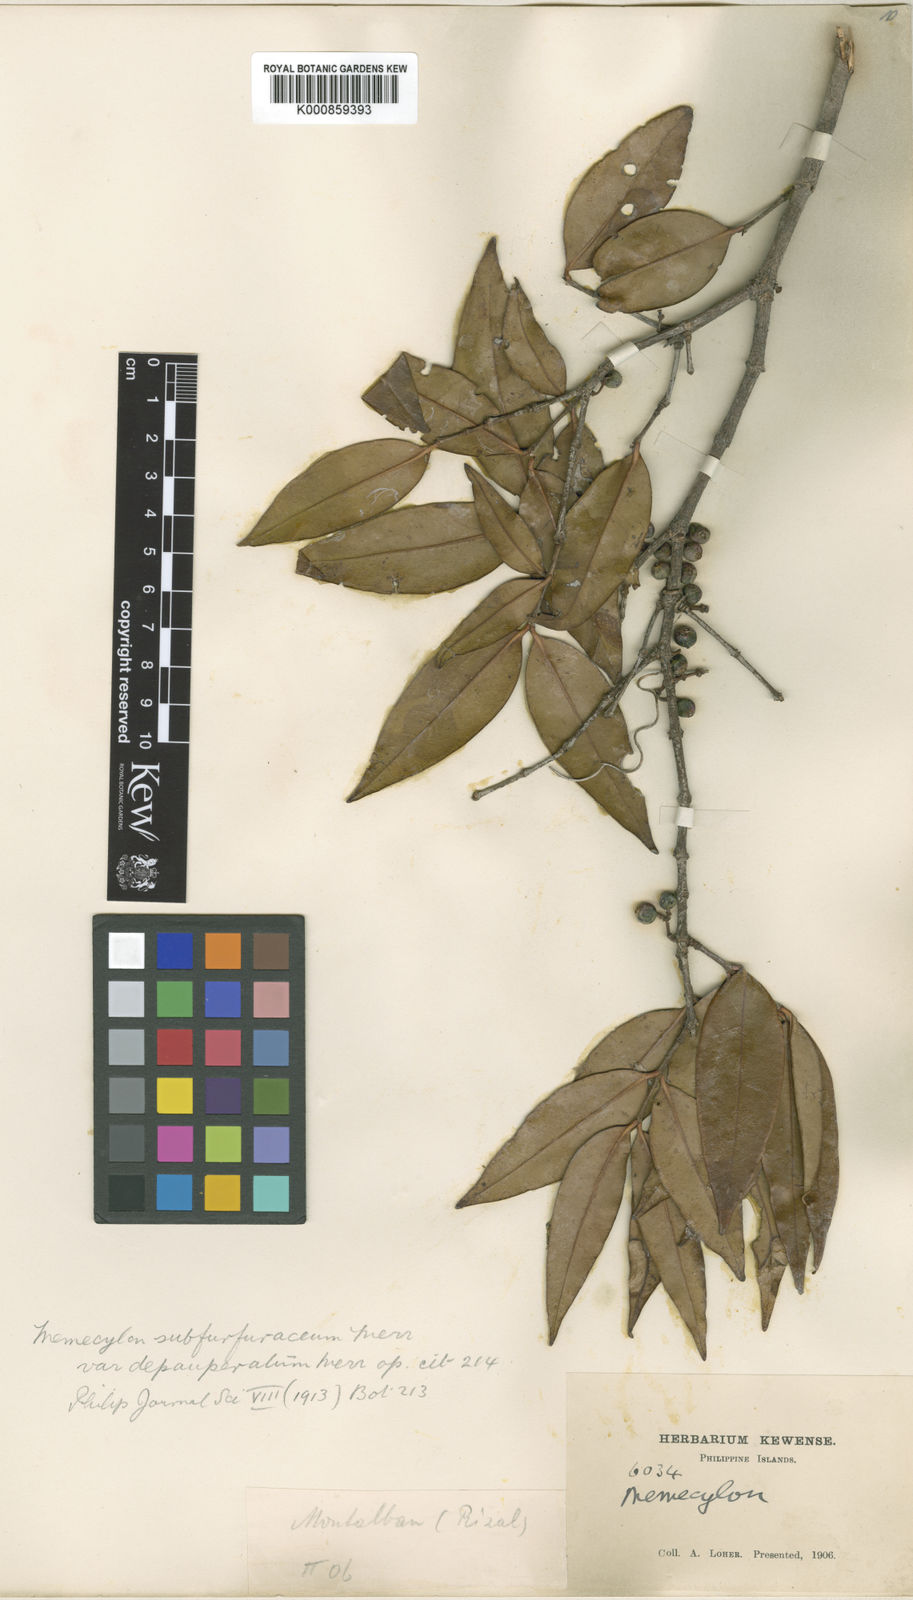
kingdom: Plantae
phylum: Tracheophyta
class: Magnoliopsida
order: Myrtales
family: Melastomataceae
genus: Memecylon
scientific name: Memecylon subfurfuraceum
